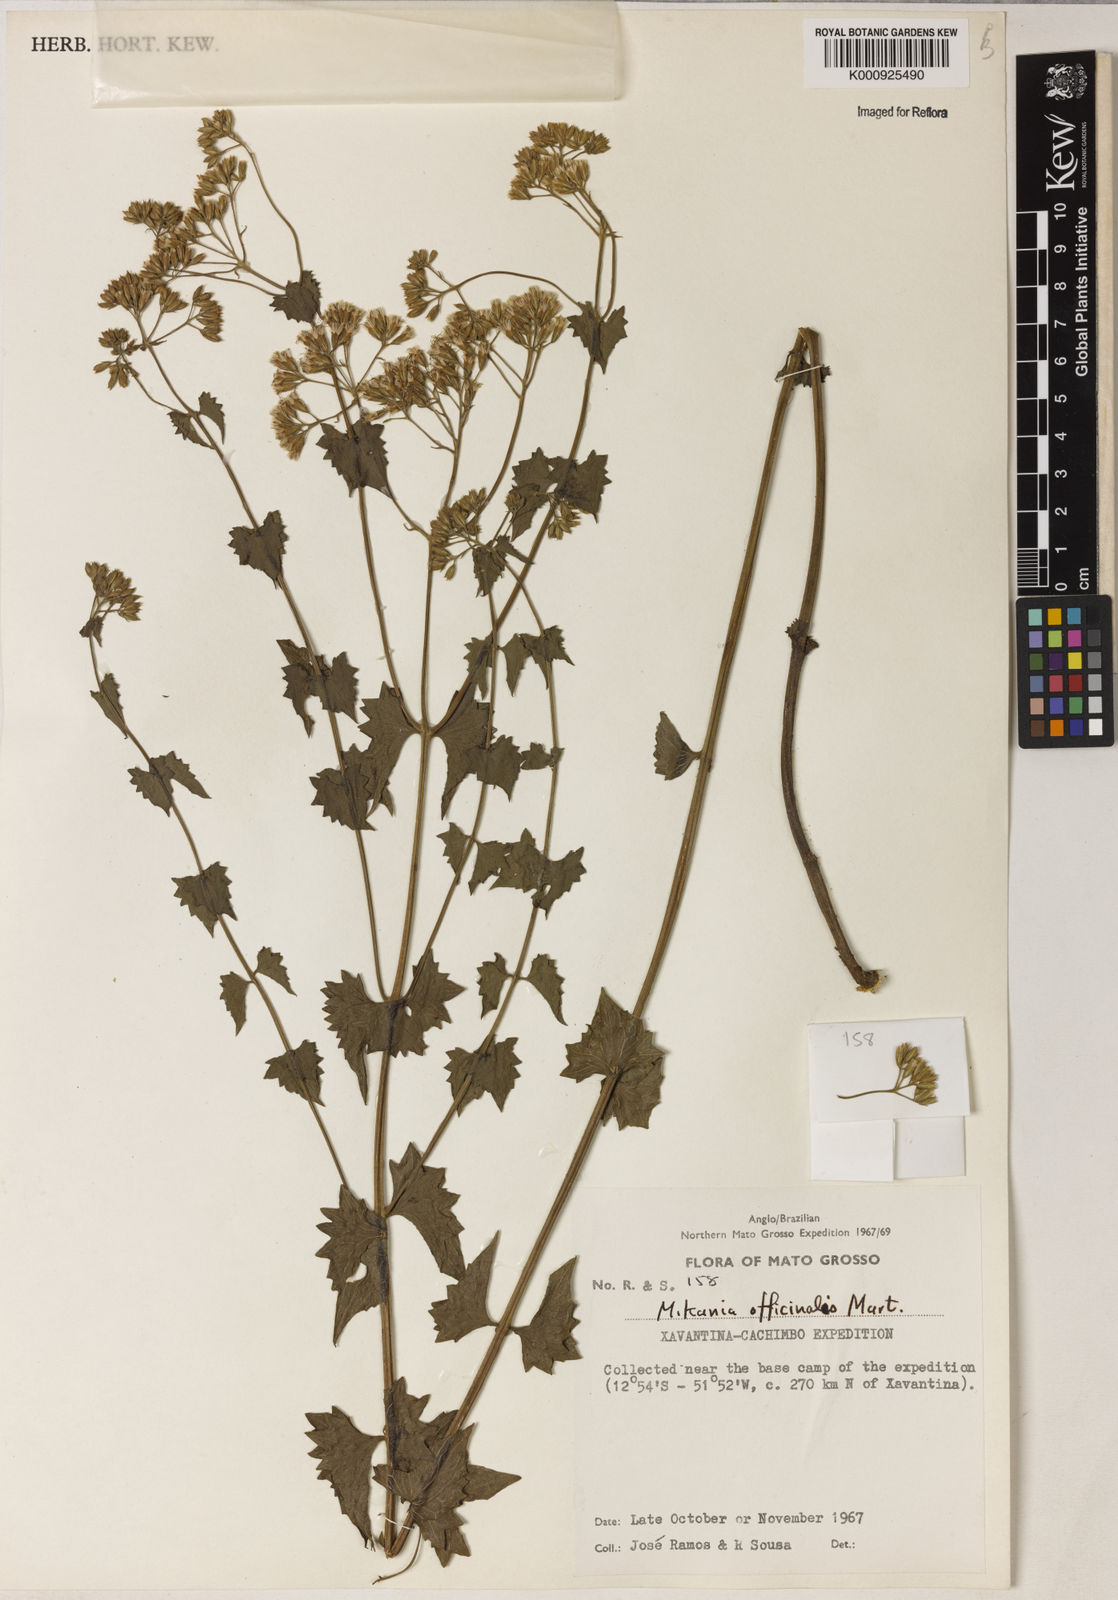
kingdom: Plantae
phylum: Tracheophyta
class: Magnoliopsida
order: Asterales
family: Asteraceae
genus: Mikania
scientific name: Mikania officinalis
